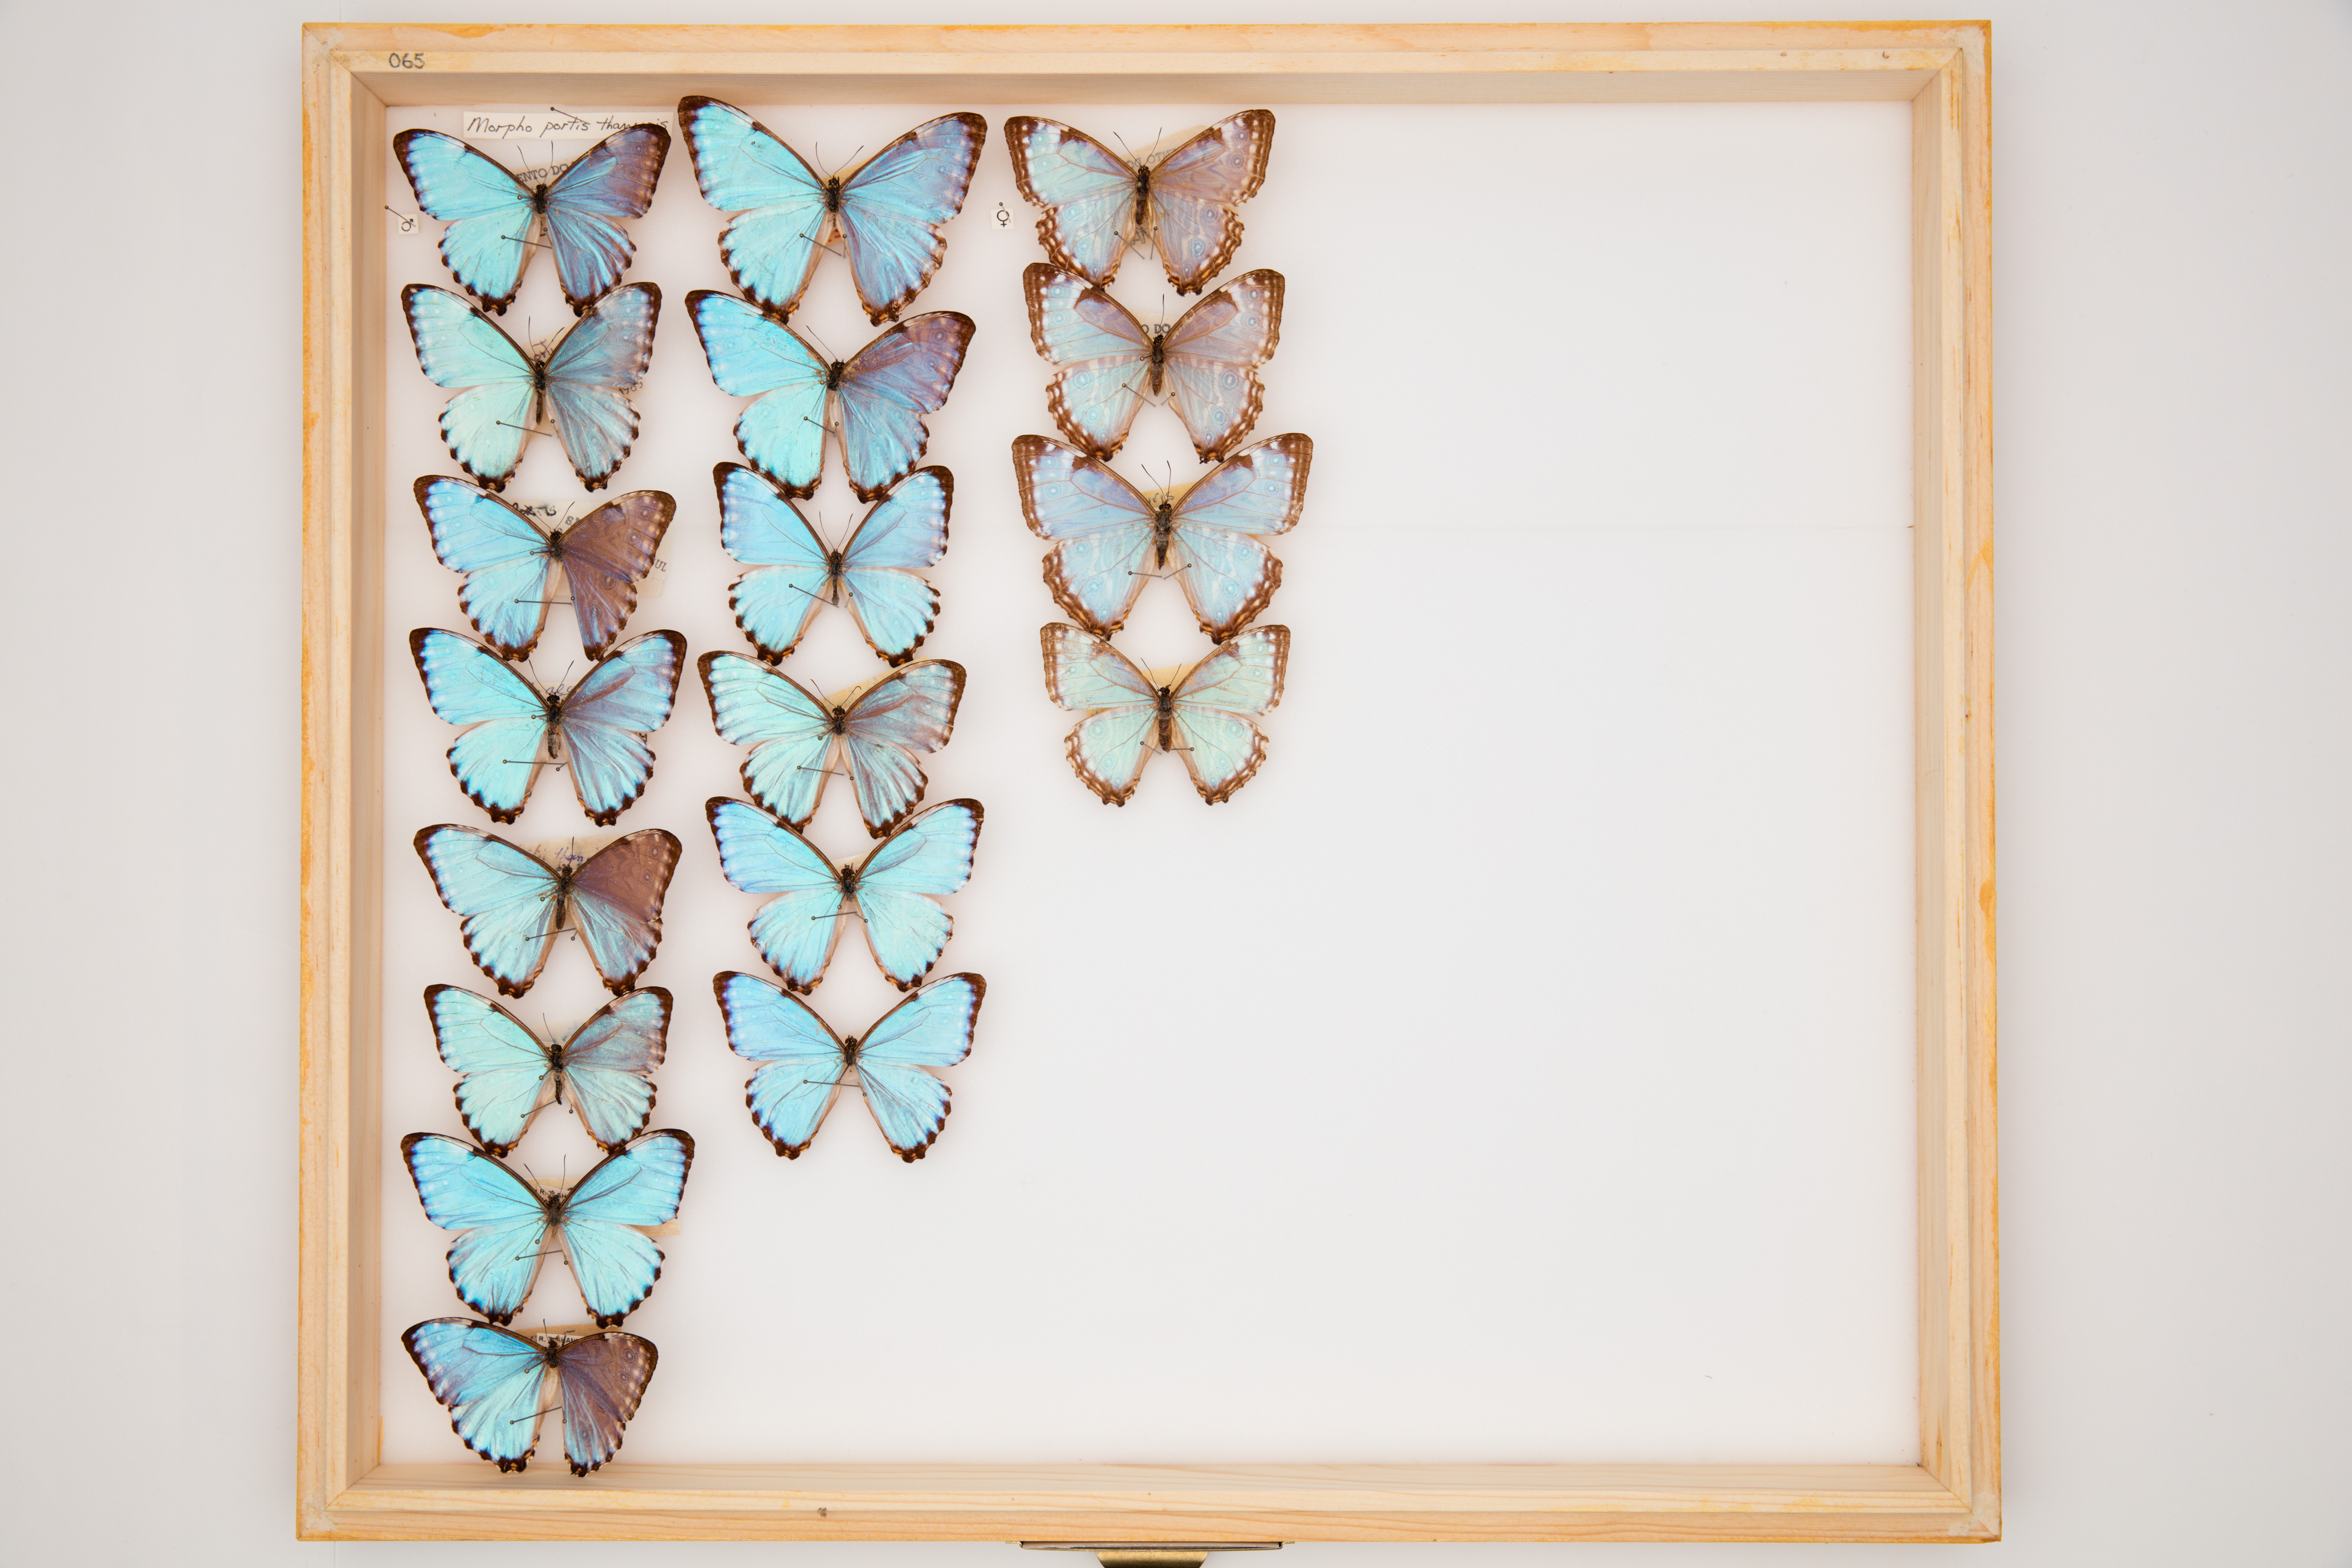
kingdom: Animalia
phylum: Arthropoda
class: Insecta
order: Lepidoptera
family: Nymphalidae
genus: Morpho
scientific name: Morpho portis
